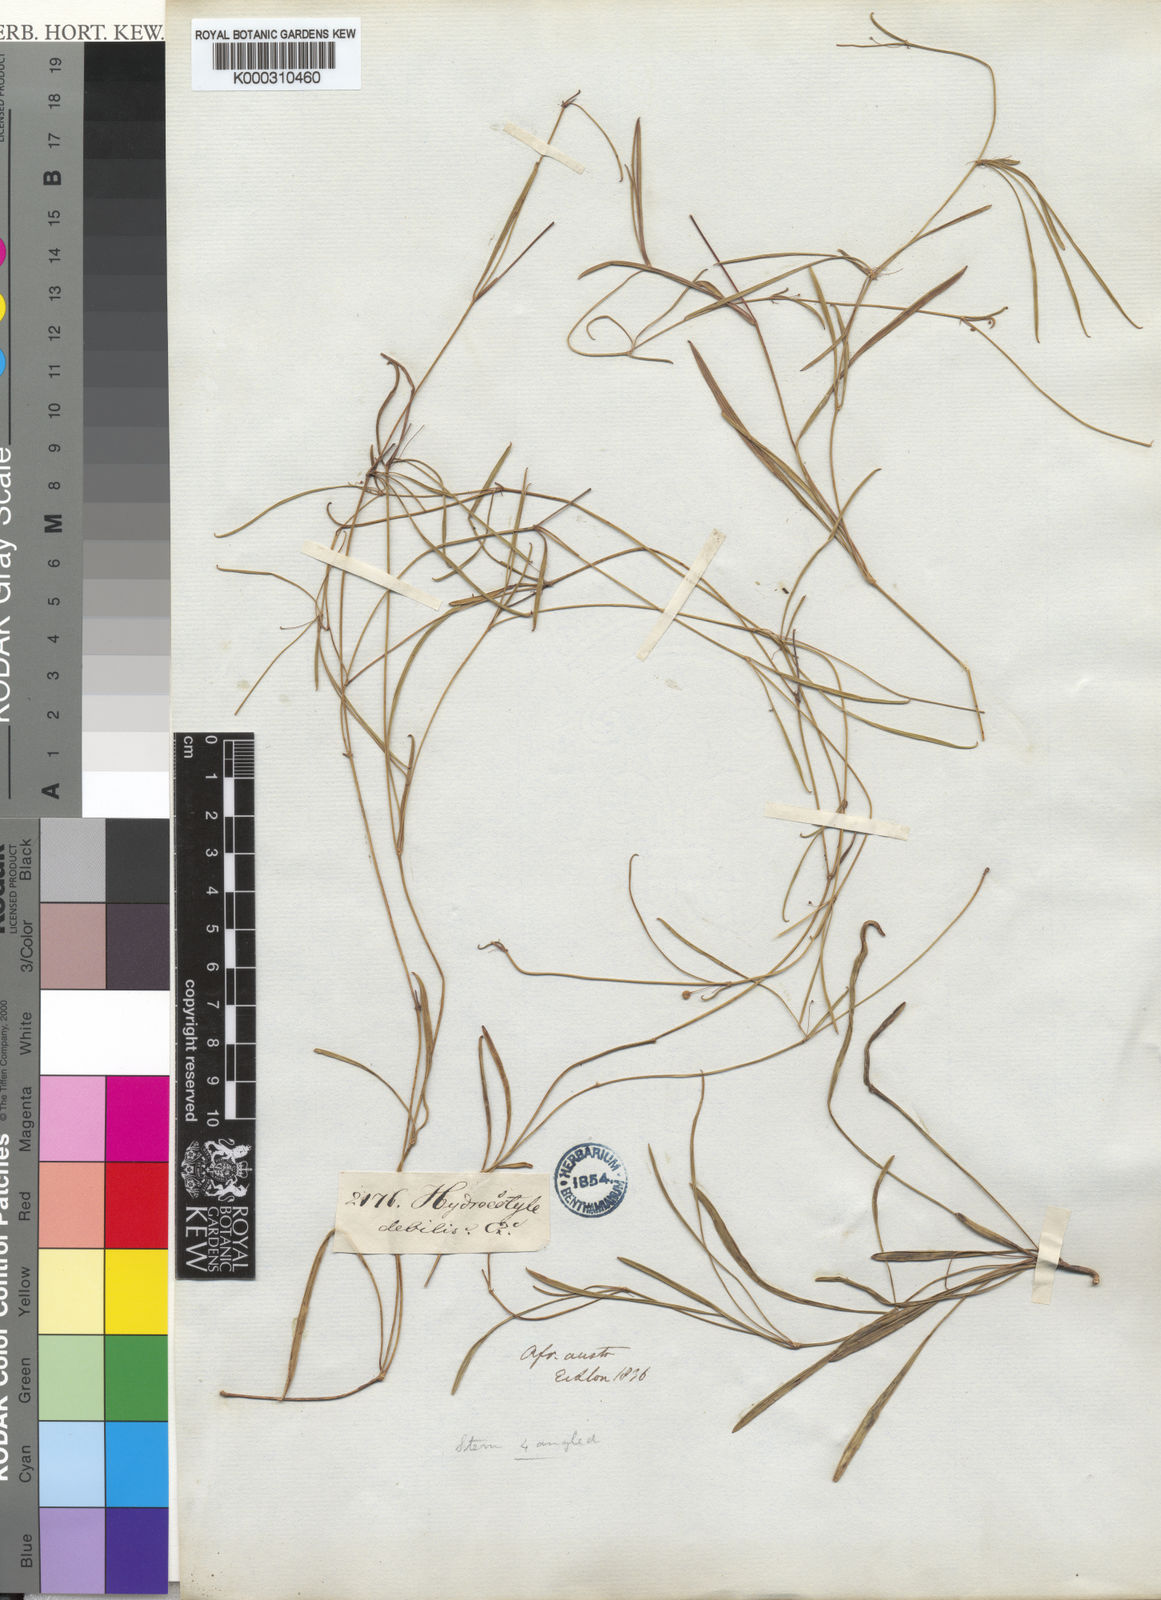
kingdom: Plantae
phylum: Tracheophyta
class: Magnoliopsida
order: Apiales
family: Apiaceae
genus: Centella
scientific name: Centella debilis
